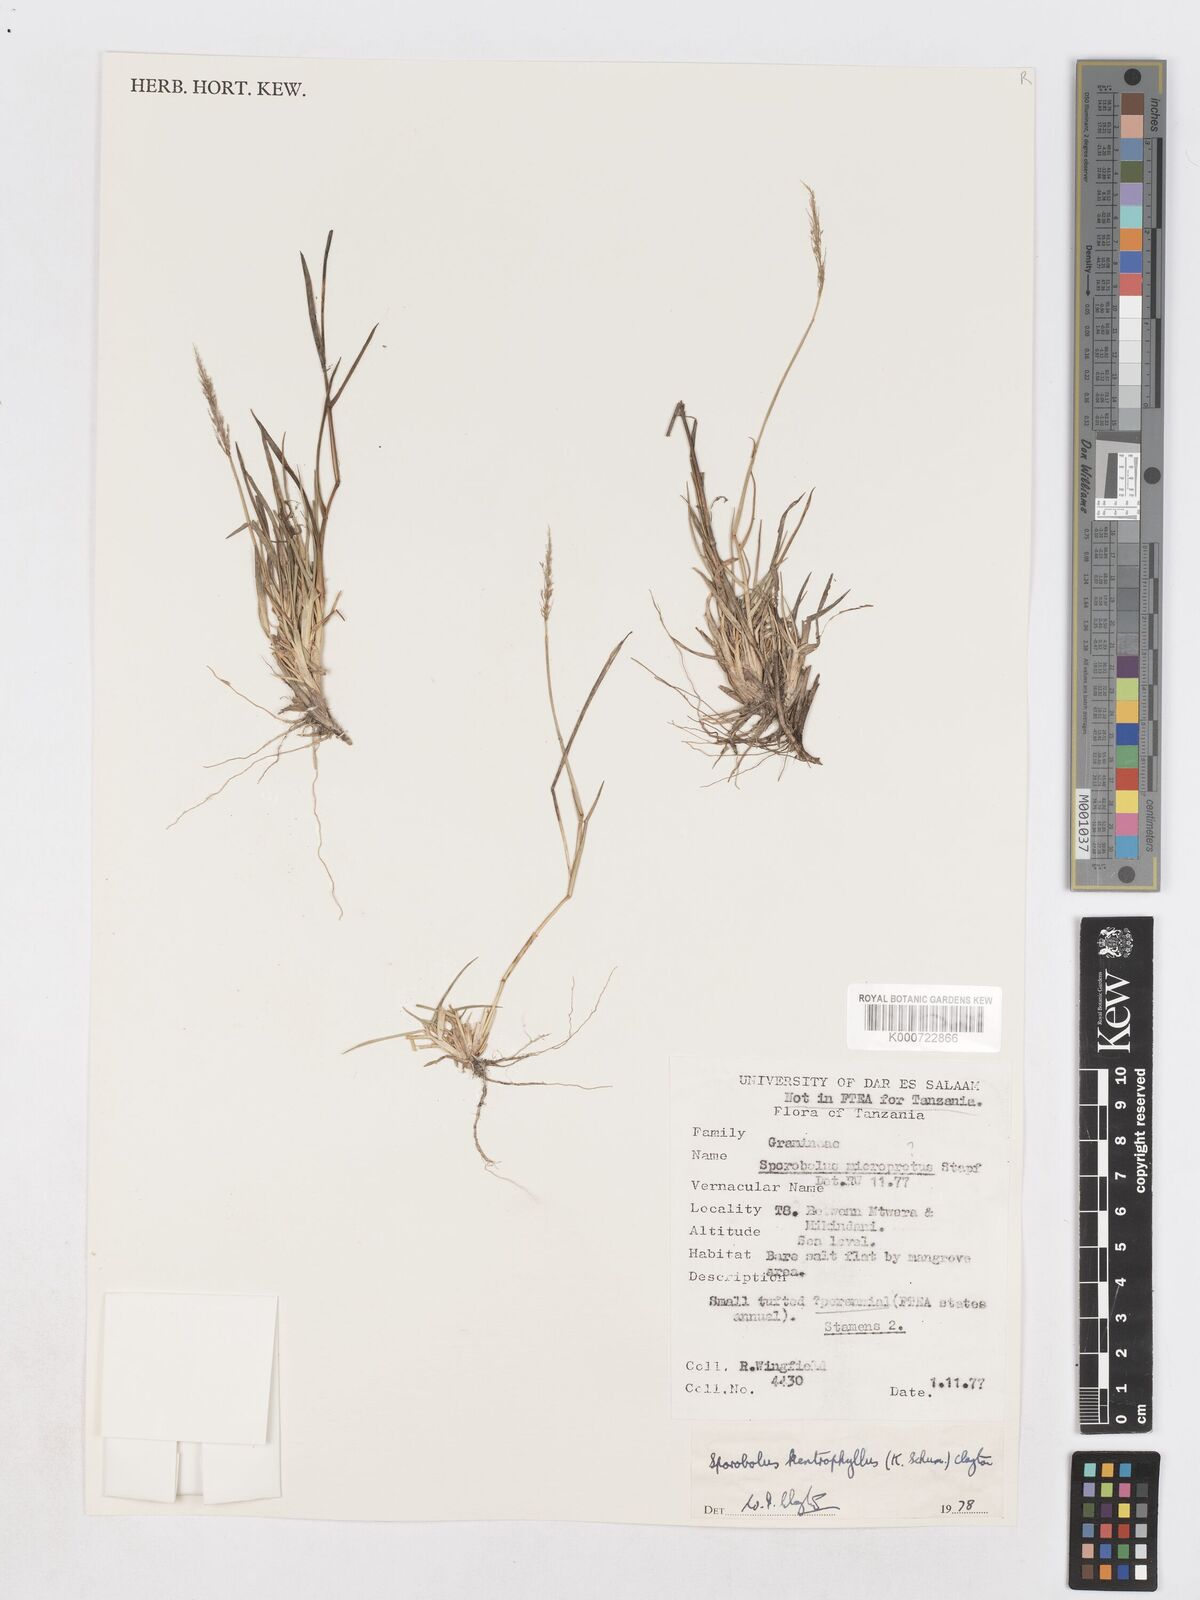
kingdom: Plantae
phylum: Tracheophyta
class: Liliopsida
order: Poales
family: Poaceae
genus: Sporobolus
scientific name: Sporobolus ioclados
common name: Pan dropseed
